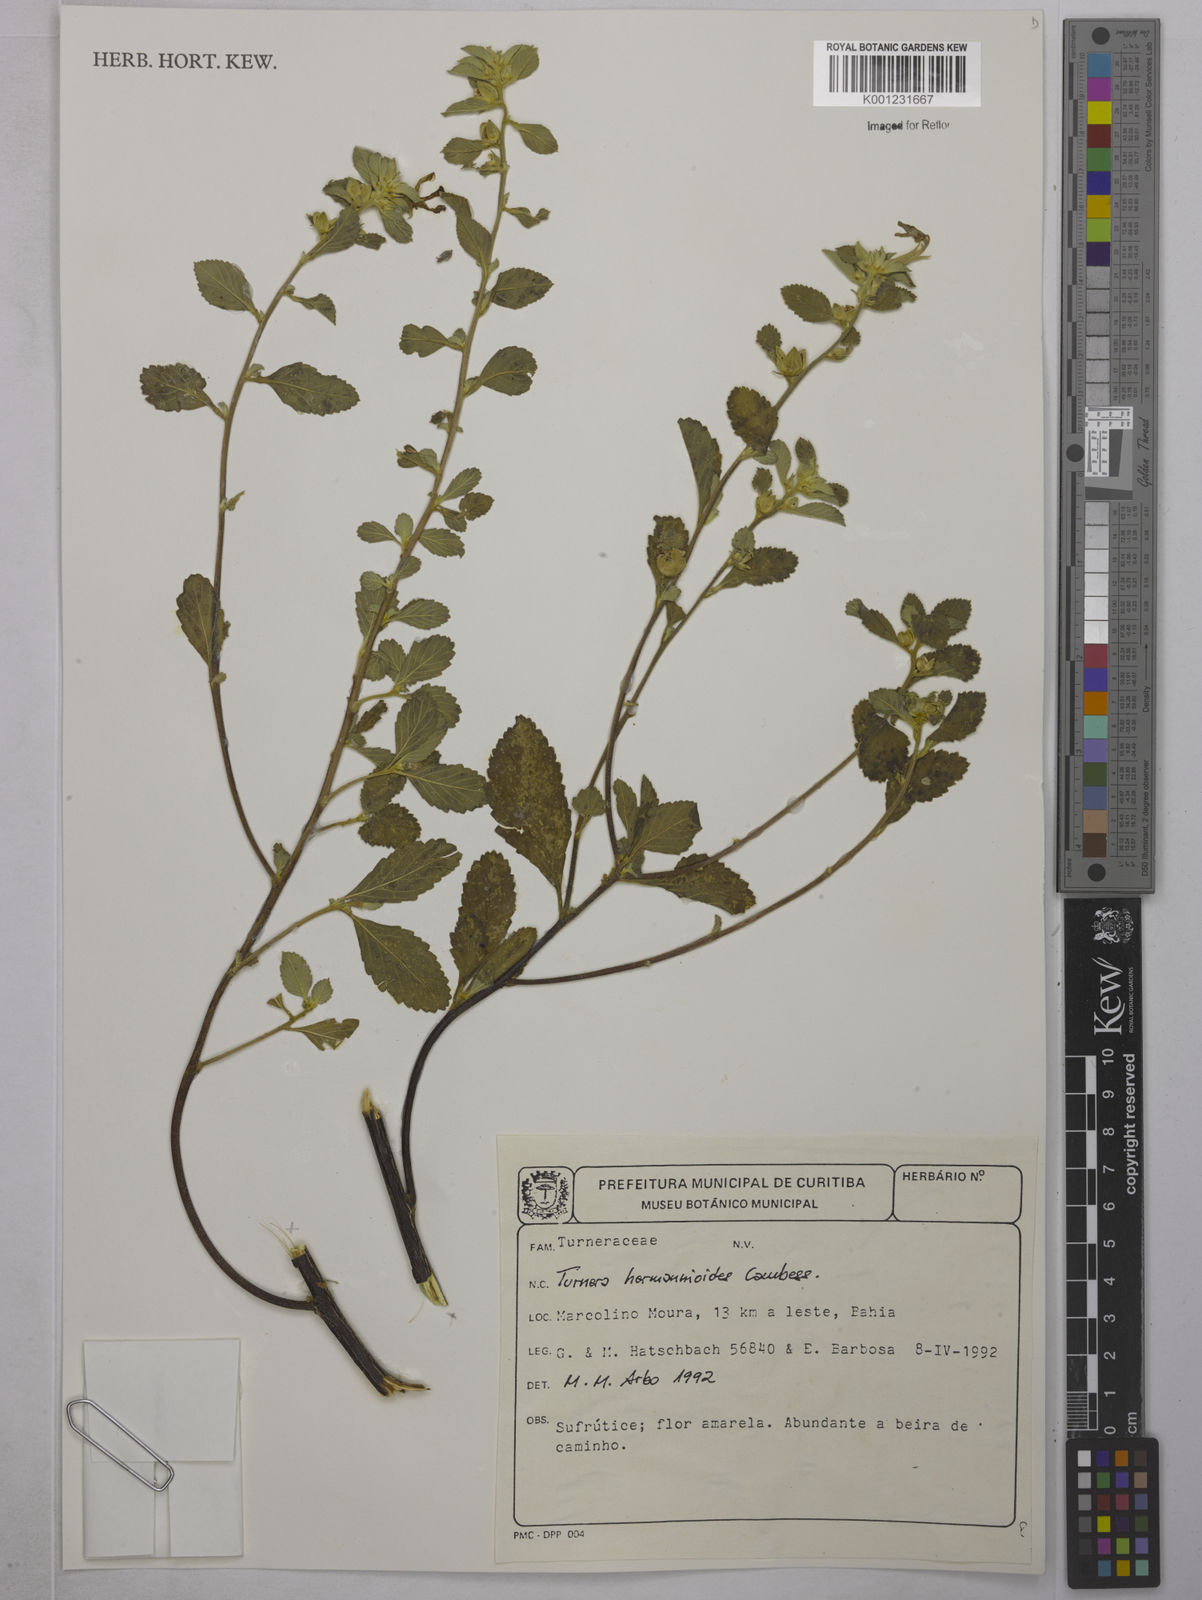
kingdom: Plantae
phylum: Tracheophyta
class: Magnoliopsida
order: Malpighiales
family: Turneraceae
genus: Turnera
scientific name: Turnera hermannioides
